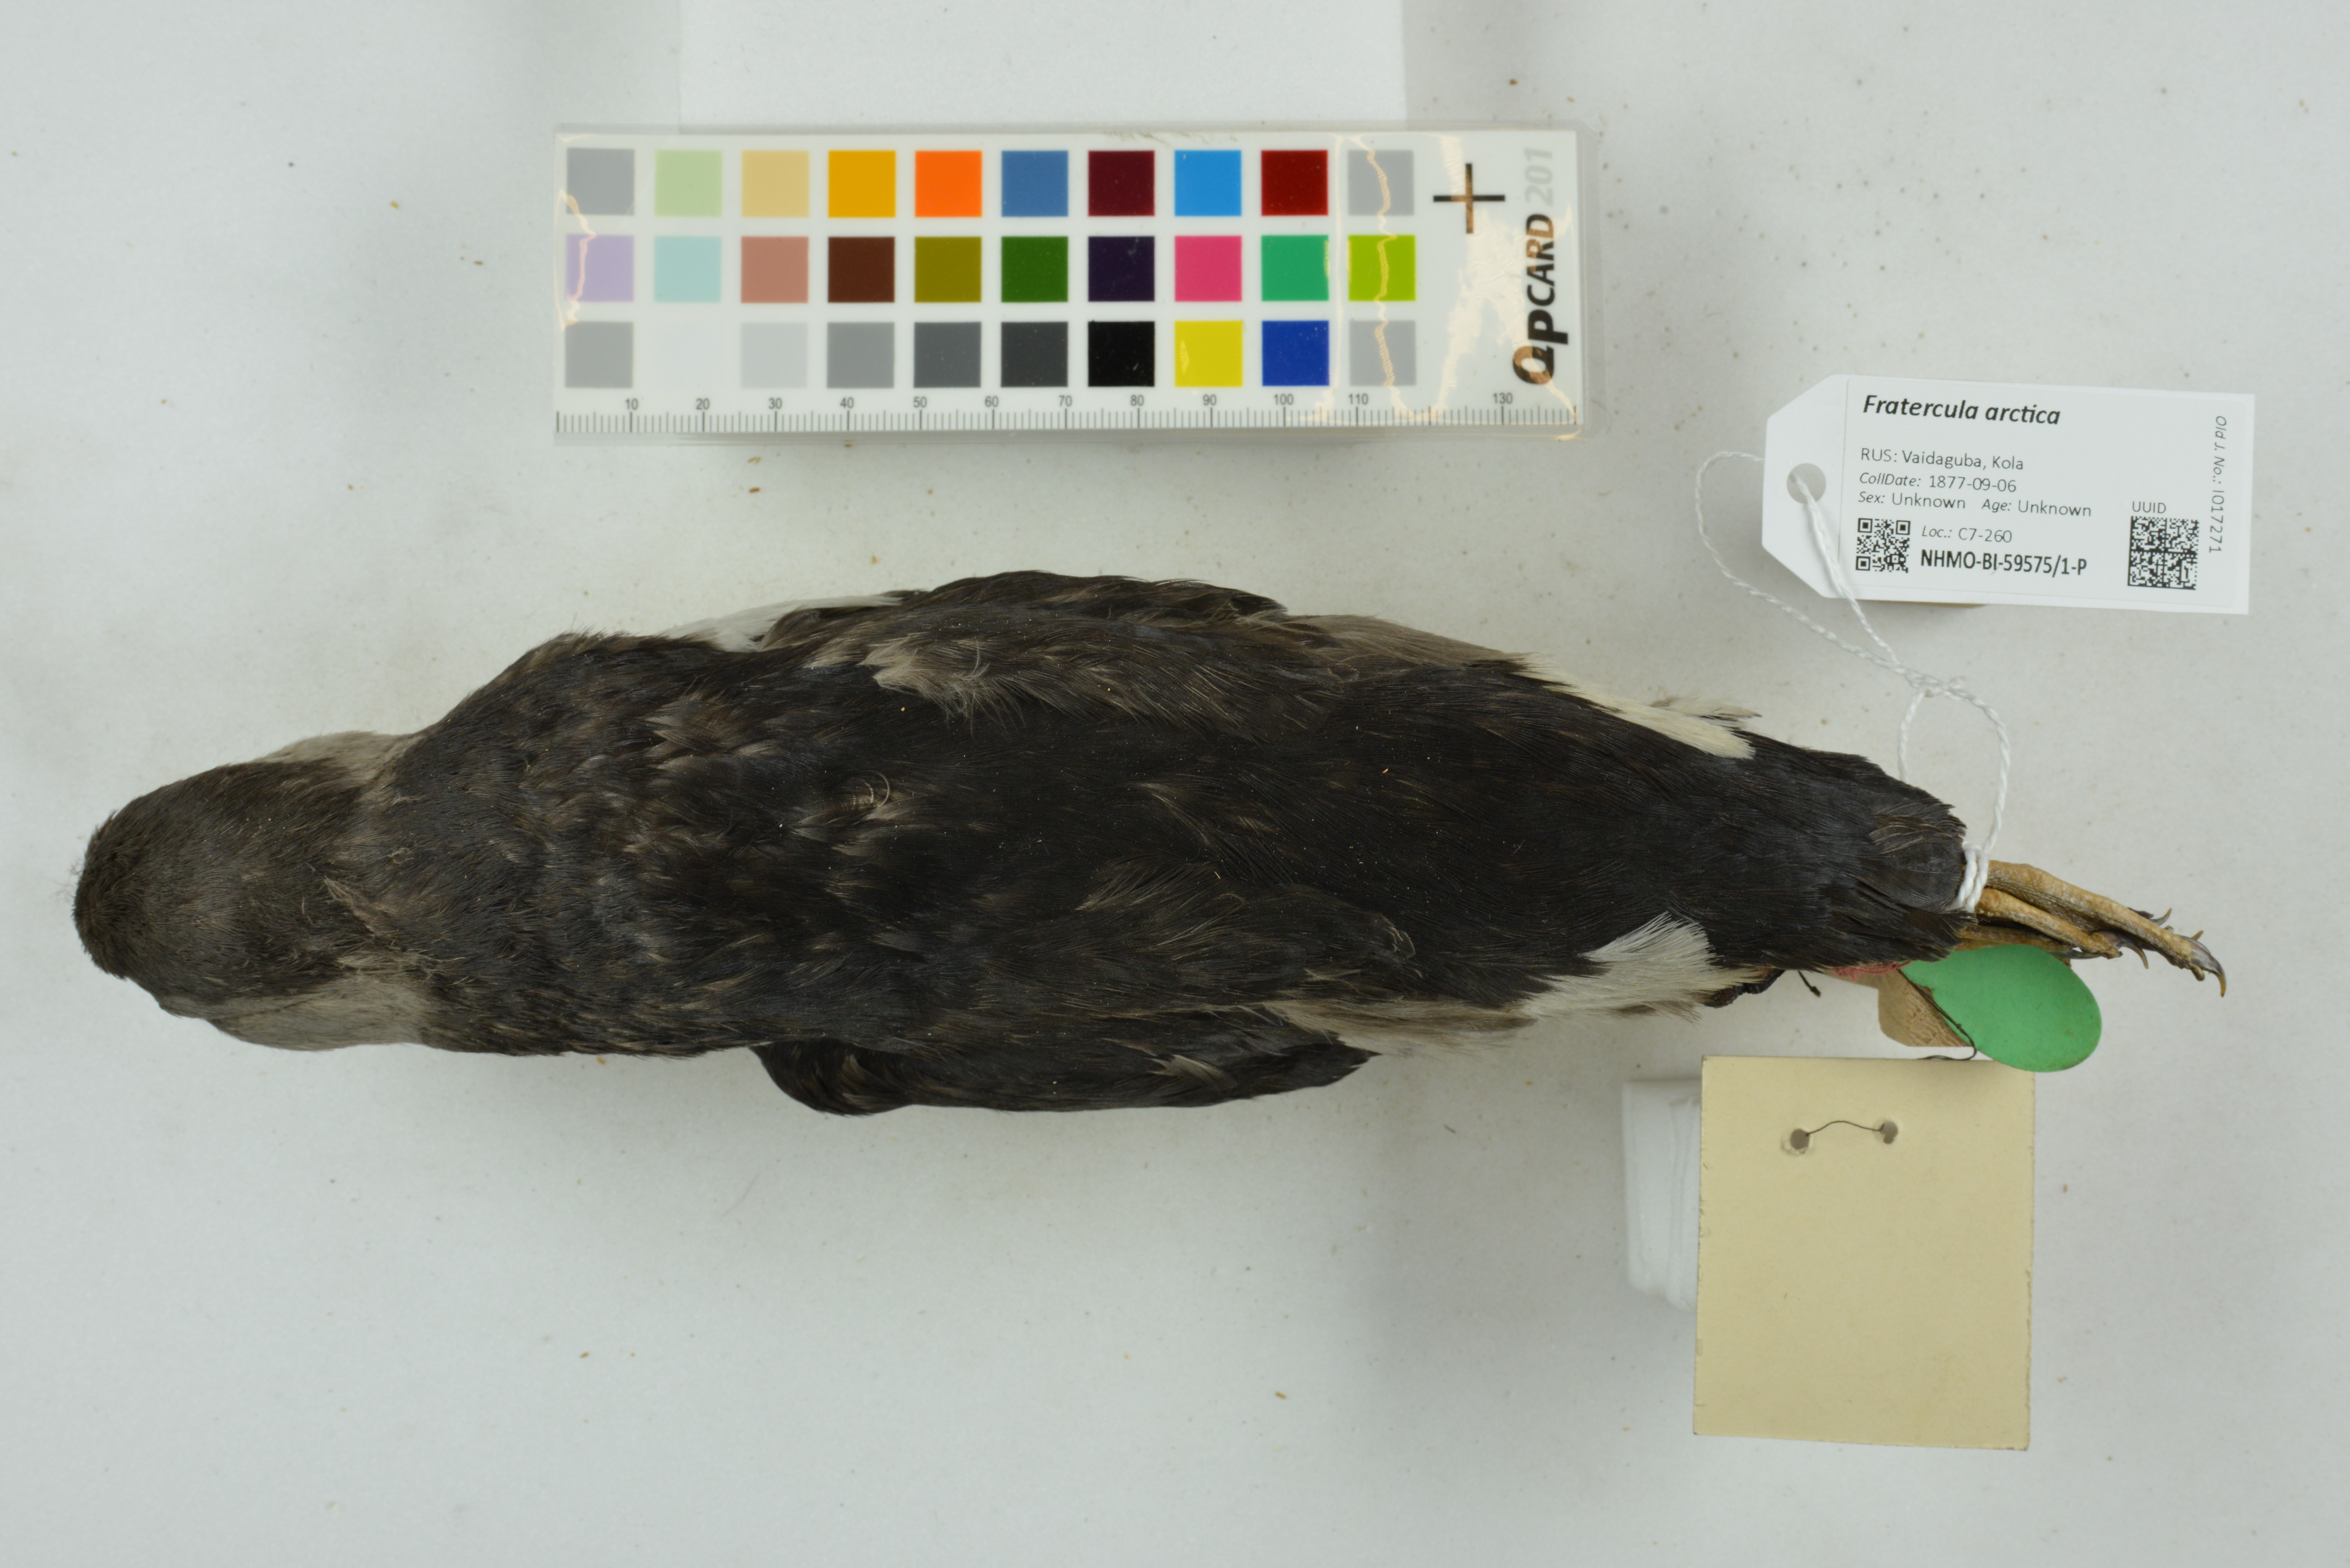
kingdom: Animalia
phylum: Chordata
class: Aves
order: Charadriiformes
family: Alcidae
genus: Fratercula
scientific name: Fratercula arctica
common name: Atlantic puffin
